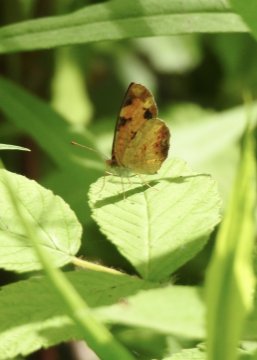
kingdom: Animalia
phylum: Arthropoda
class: Insecta
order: Lepidoptera
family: Nymphalidae
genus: Phyciodes
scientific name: Phyciodes tharos
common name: Northern Crescent
